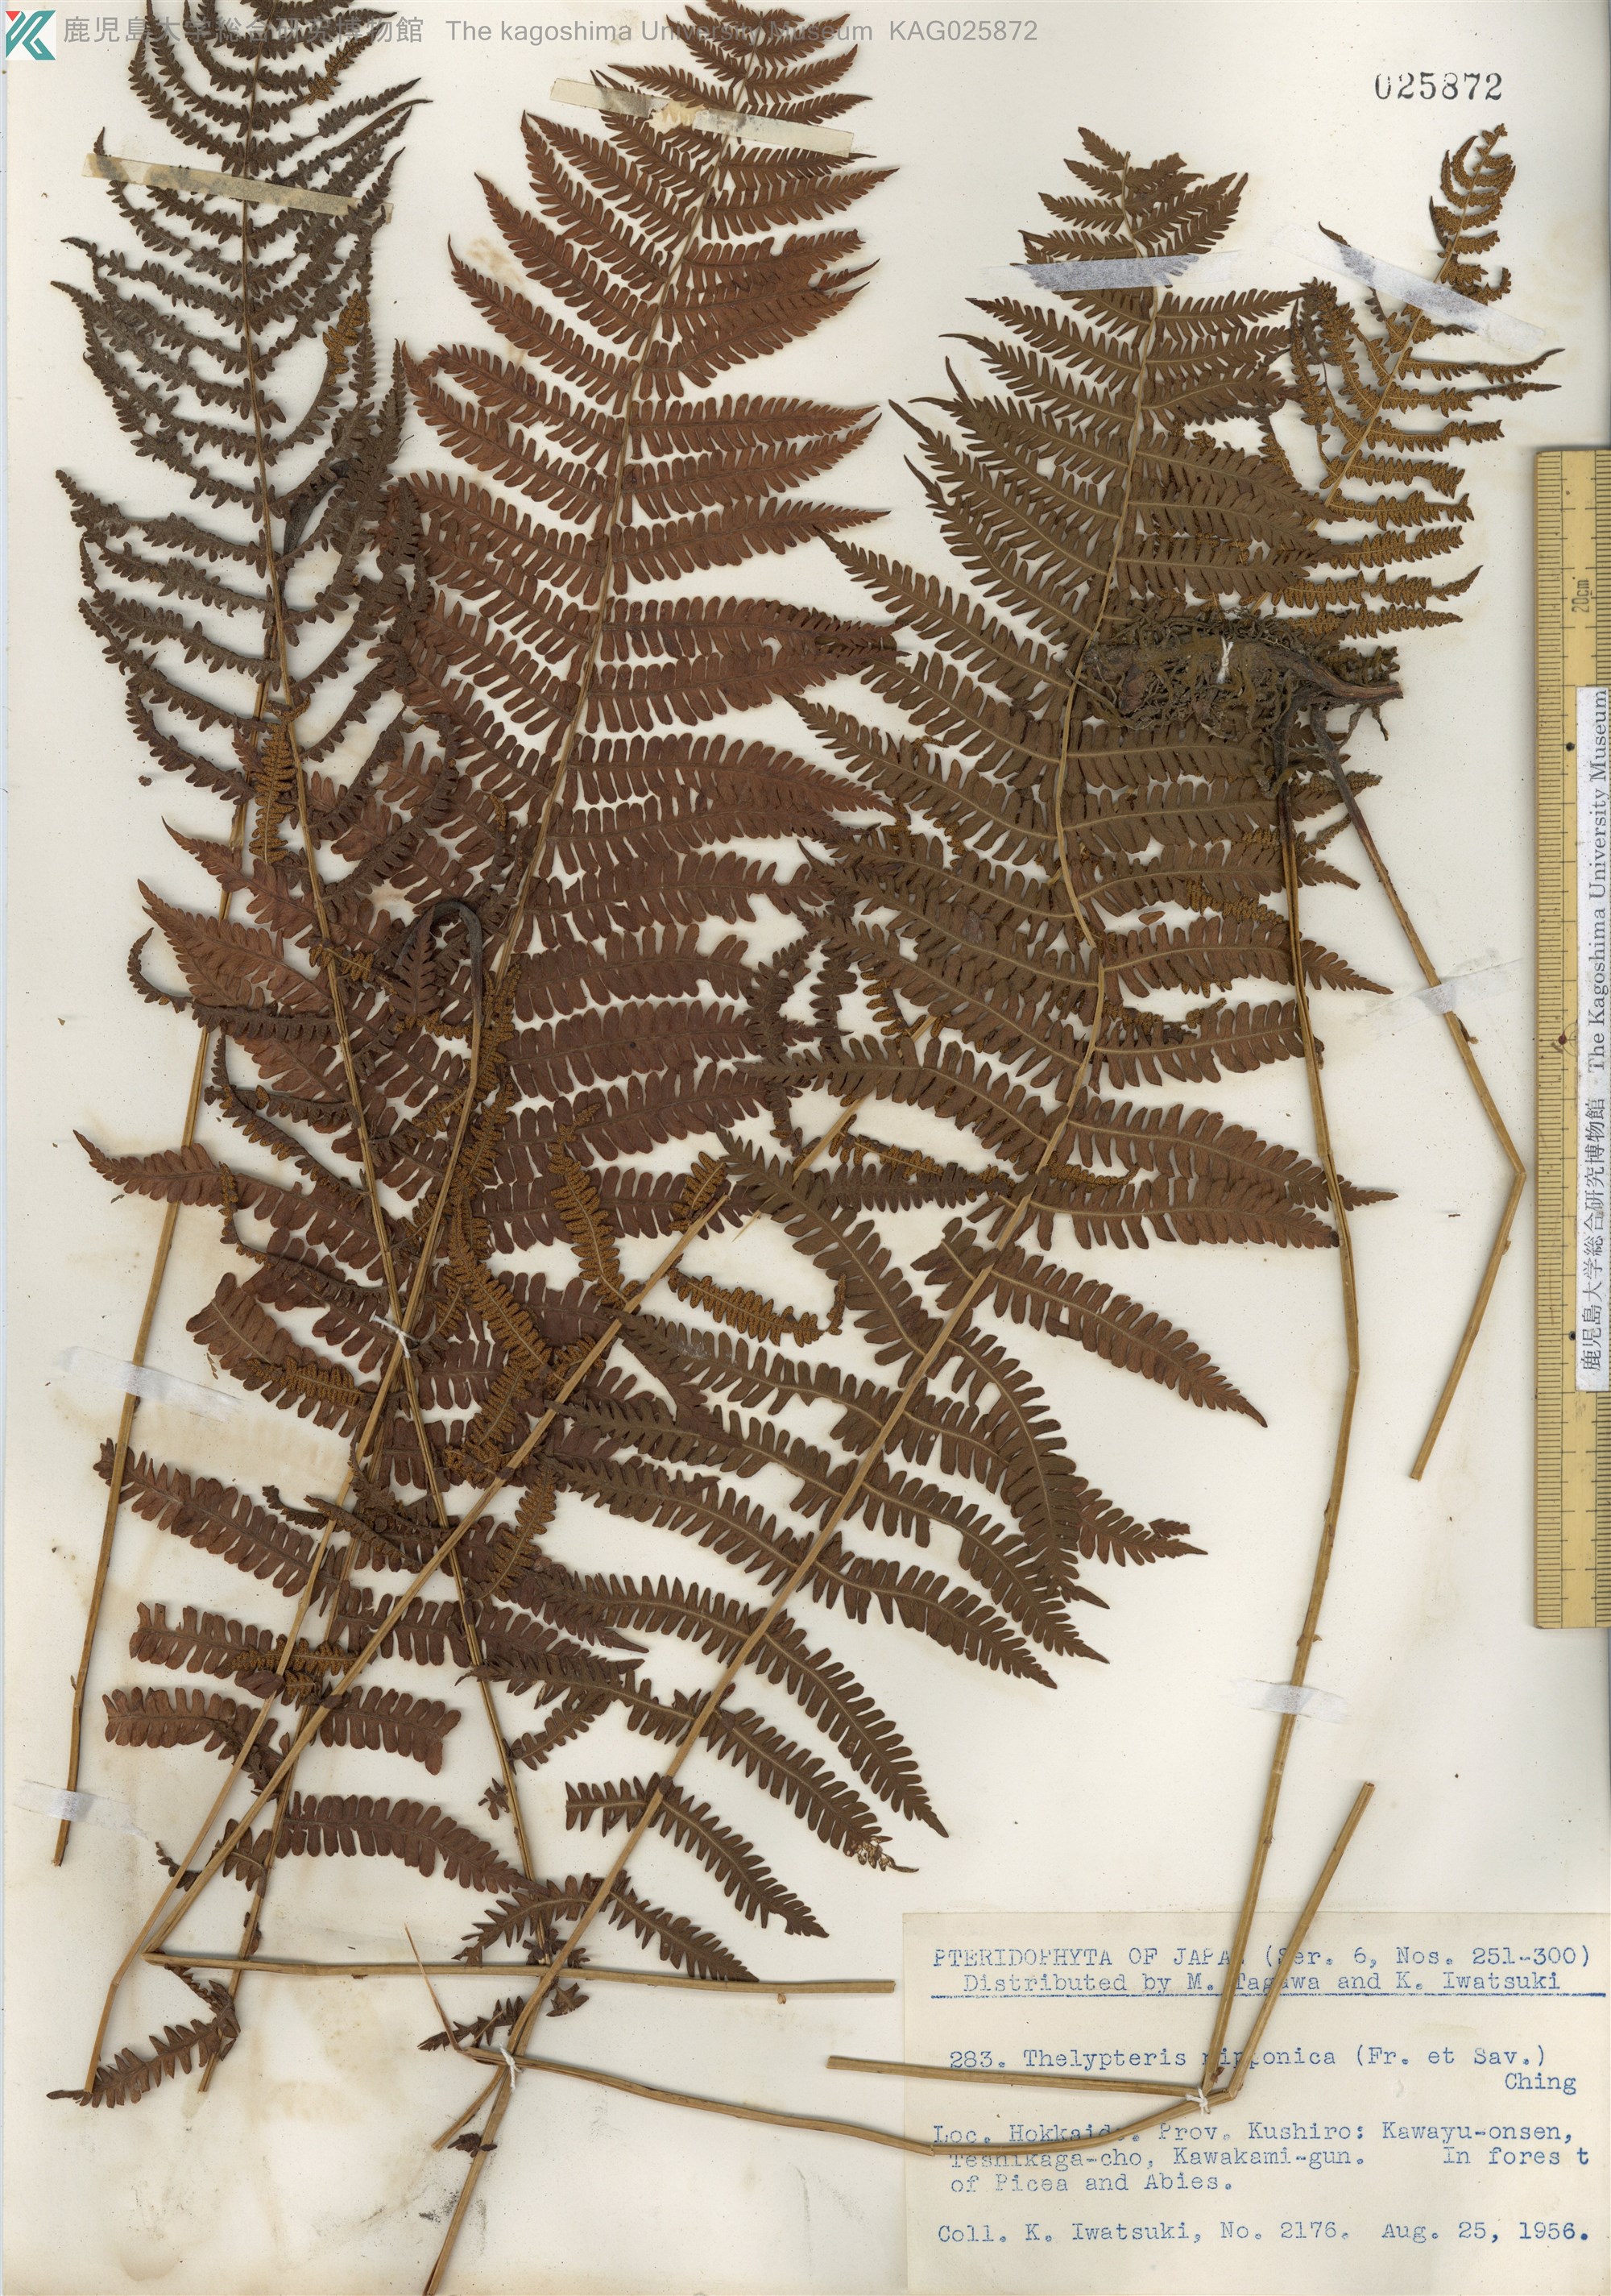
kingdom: Plantae
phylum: Tracheophyta
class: Polypodiopsida
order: Polypodiales
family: Thelypteridaceae
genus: Coryphopteris
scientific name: Coryphopteris nipponica
